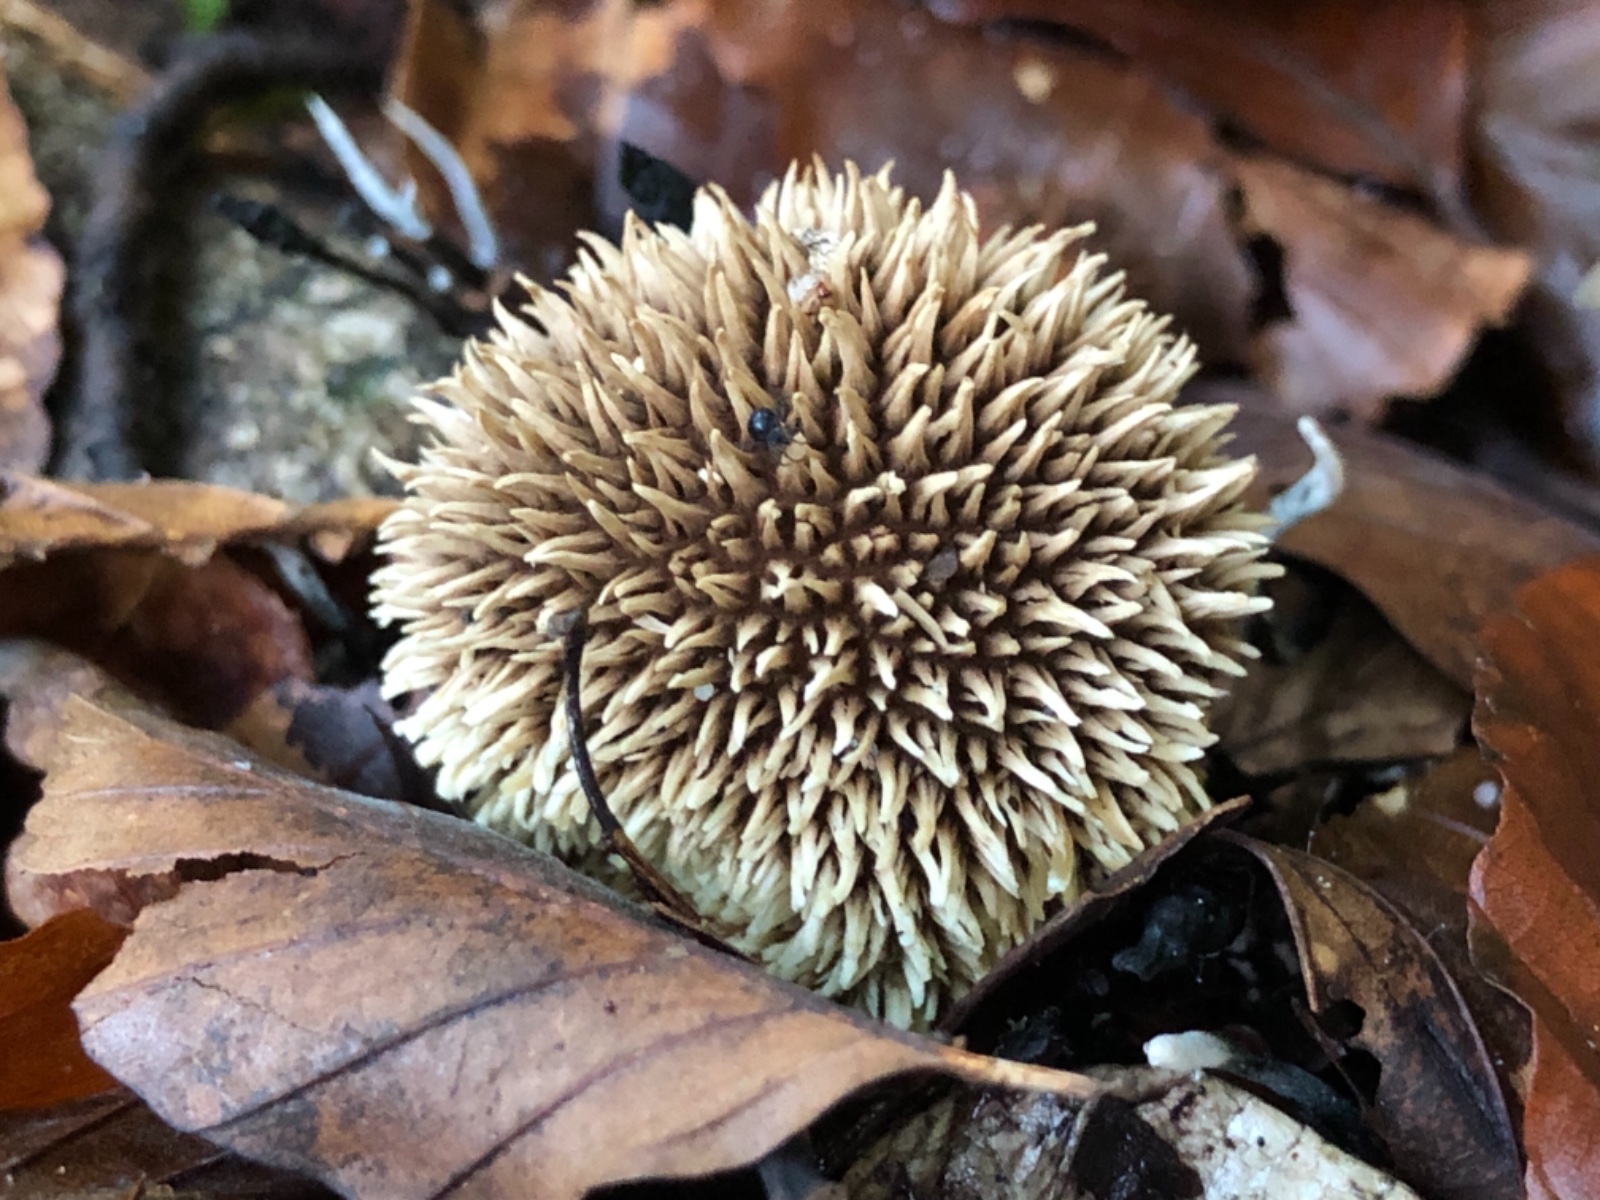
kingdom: Fungi
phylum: Basidiomycota
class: Agaricomycetes
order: Agaricales
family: Lycoperdaceae
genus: Lycoperdon
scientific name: Lycoperdon echinatum
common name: pindsvine-støvbold
